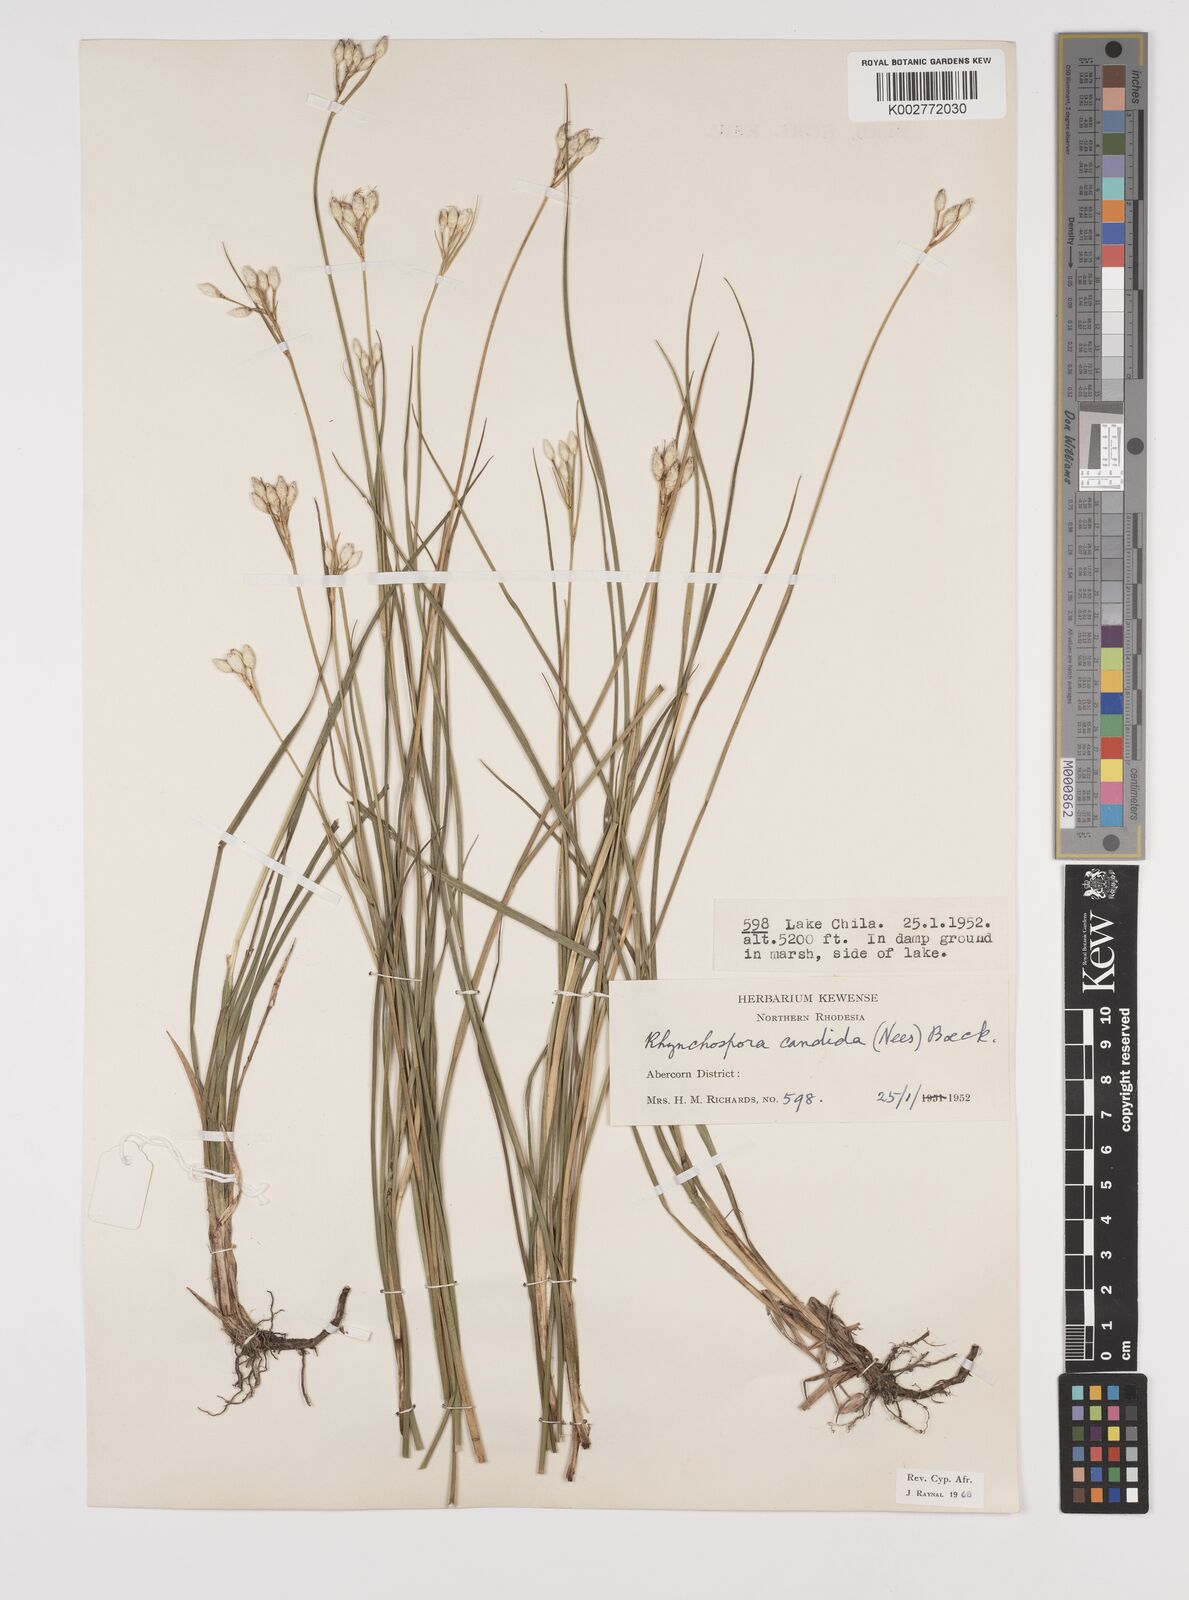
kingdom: Plantae
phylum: Tracheophyta
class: Liliopsida
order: Poales
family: Cyperaceae
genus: Rhynchospora
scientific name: Rhynchospora candida
